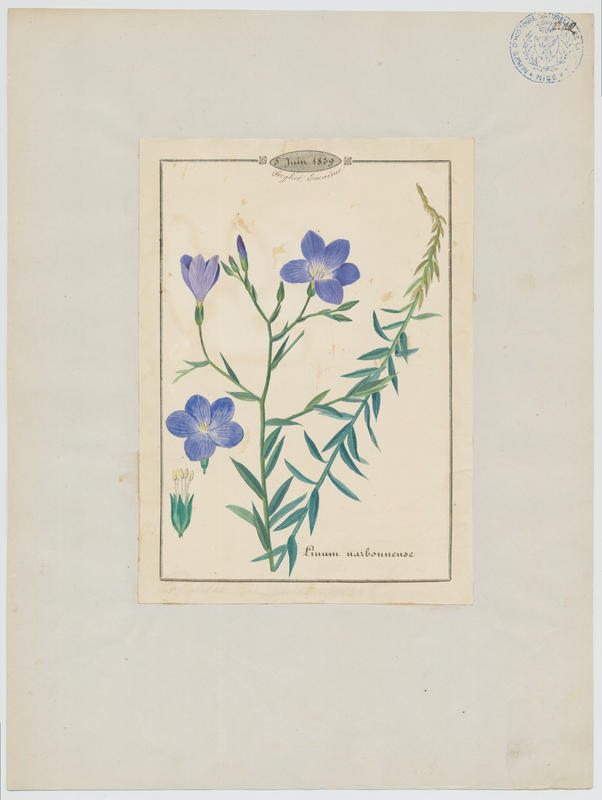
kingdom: Plantae
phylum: Tracheophyta
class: Magnoliopsida
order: Malpighiales
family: Linaceae
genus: Linum
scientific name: Linum narbonense
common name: Flax
